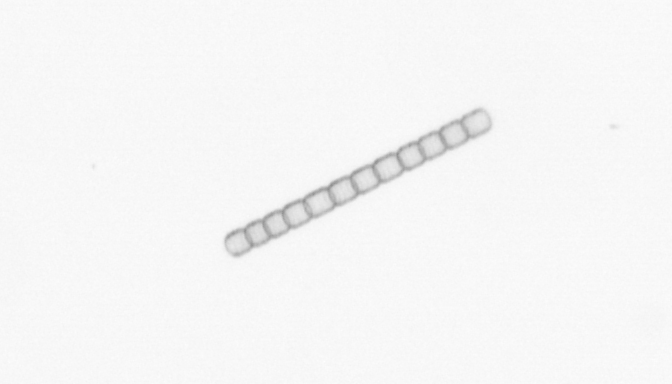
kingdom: Chromista
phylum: Ochrophyta
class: Bacillariophyceae
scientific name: Bacillariophyceae
